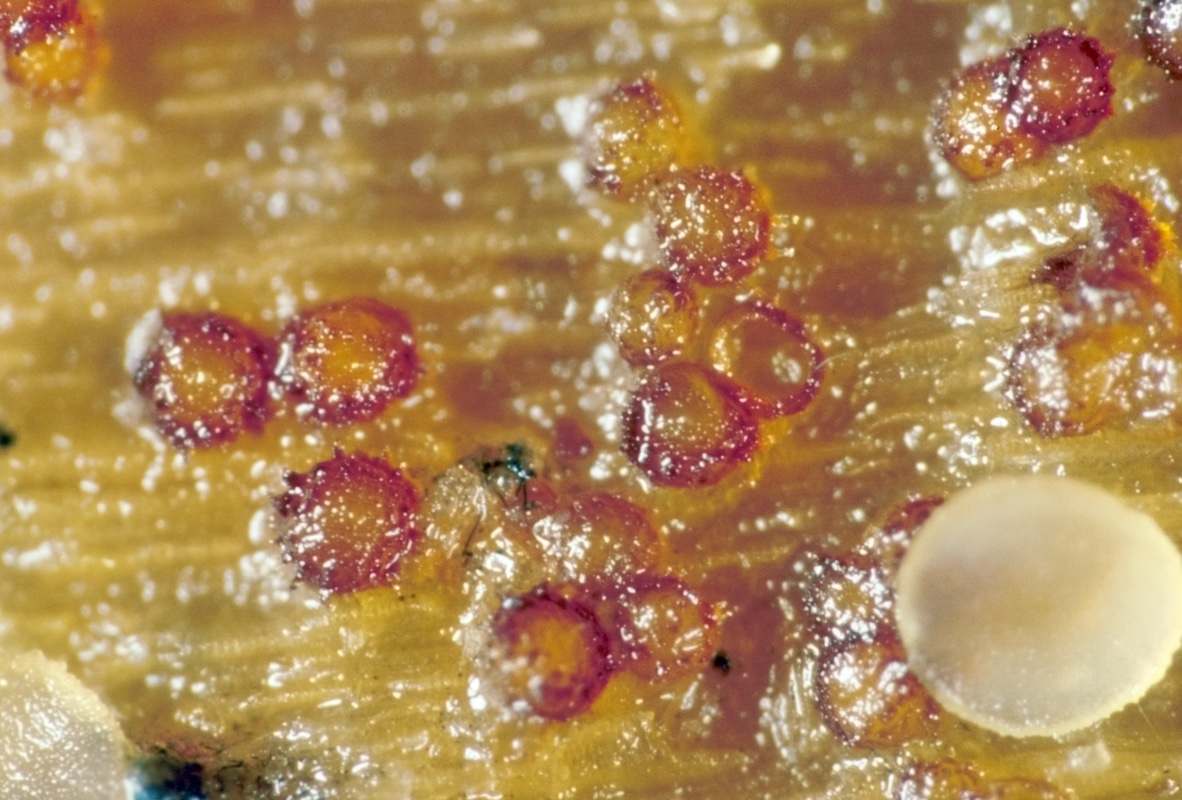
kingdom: Fungi
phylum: Ascomycota
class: Sordariomycetes
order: Hypocreales
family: Bionectriaceae
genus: Nectriella
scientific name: Nectriella atrorubra
